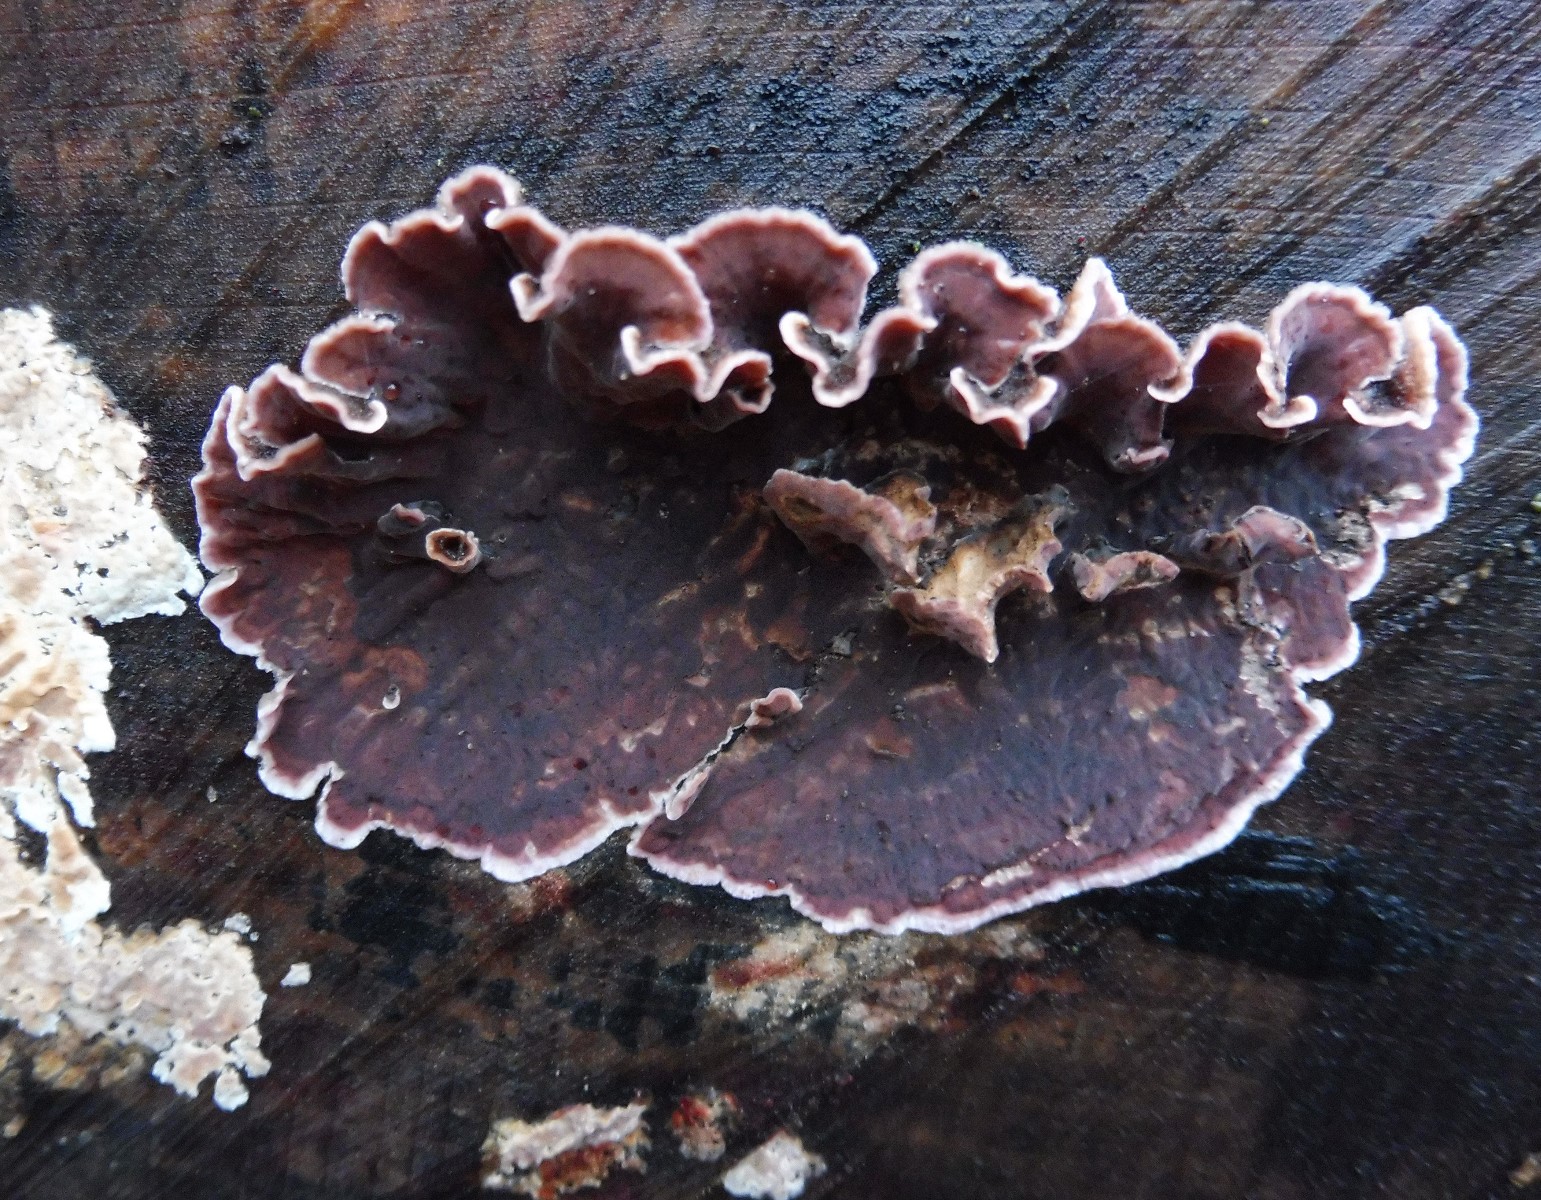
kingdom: Fungi
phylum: Basidiomycota
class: Agaricomycetes
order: Agaricales
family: Cyphellaceae
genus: Chondrostereum
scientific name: Chondrostereum purpureum
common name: purpurlædersvamp
